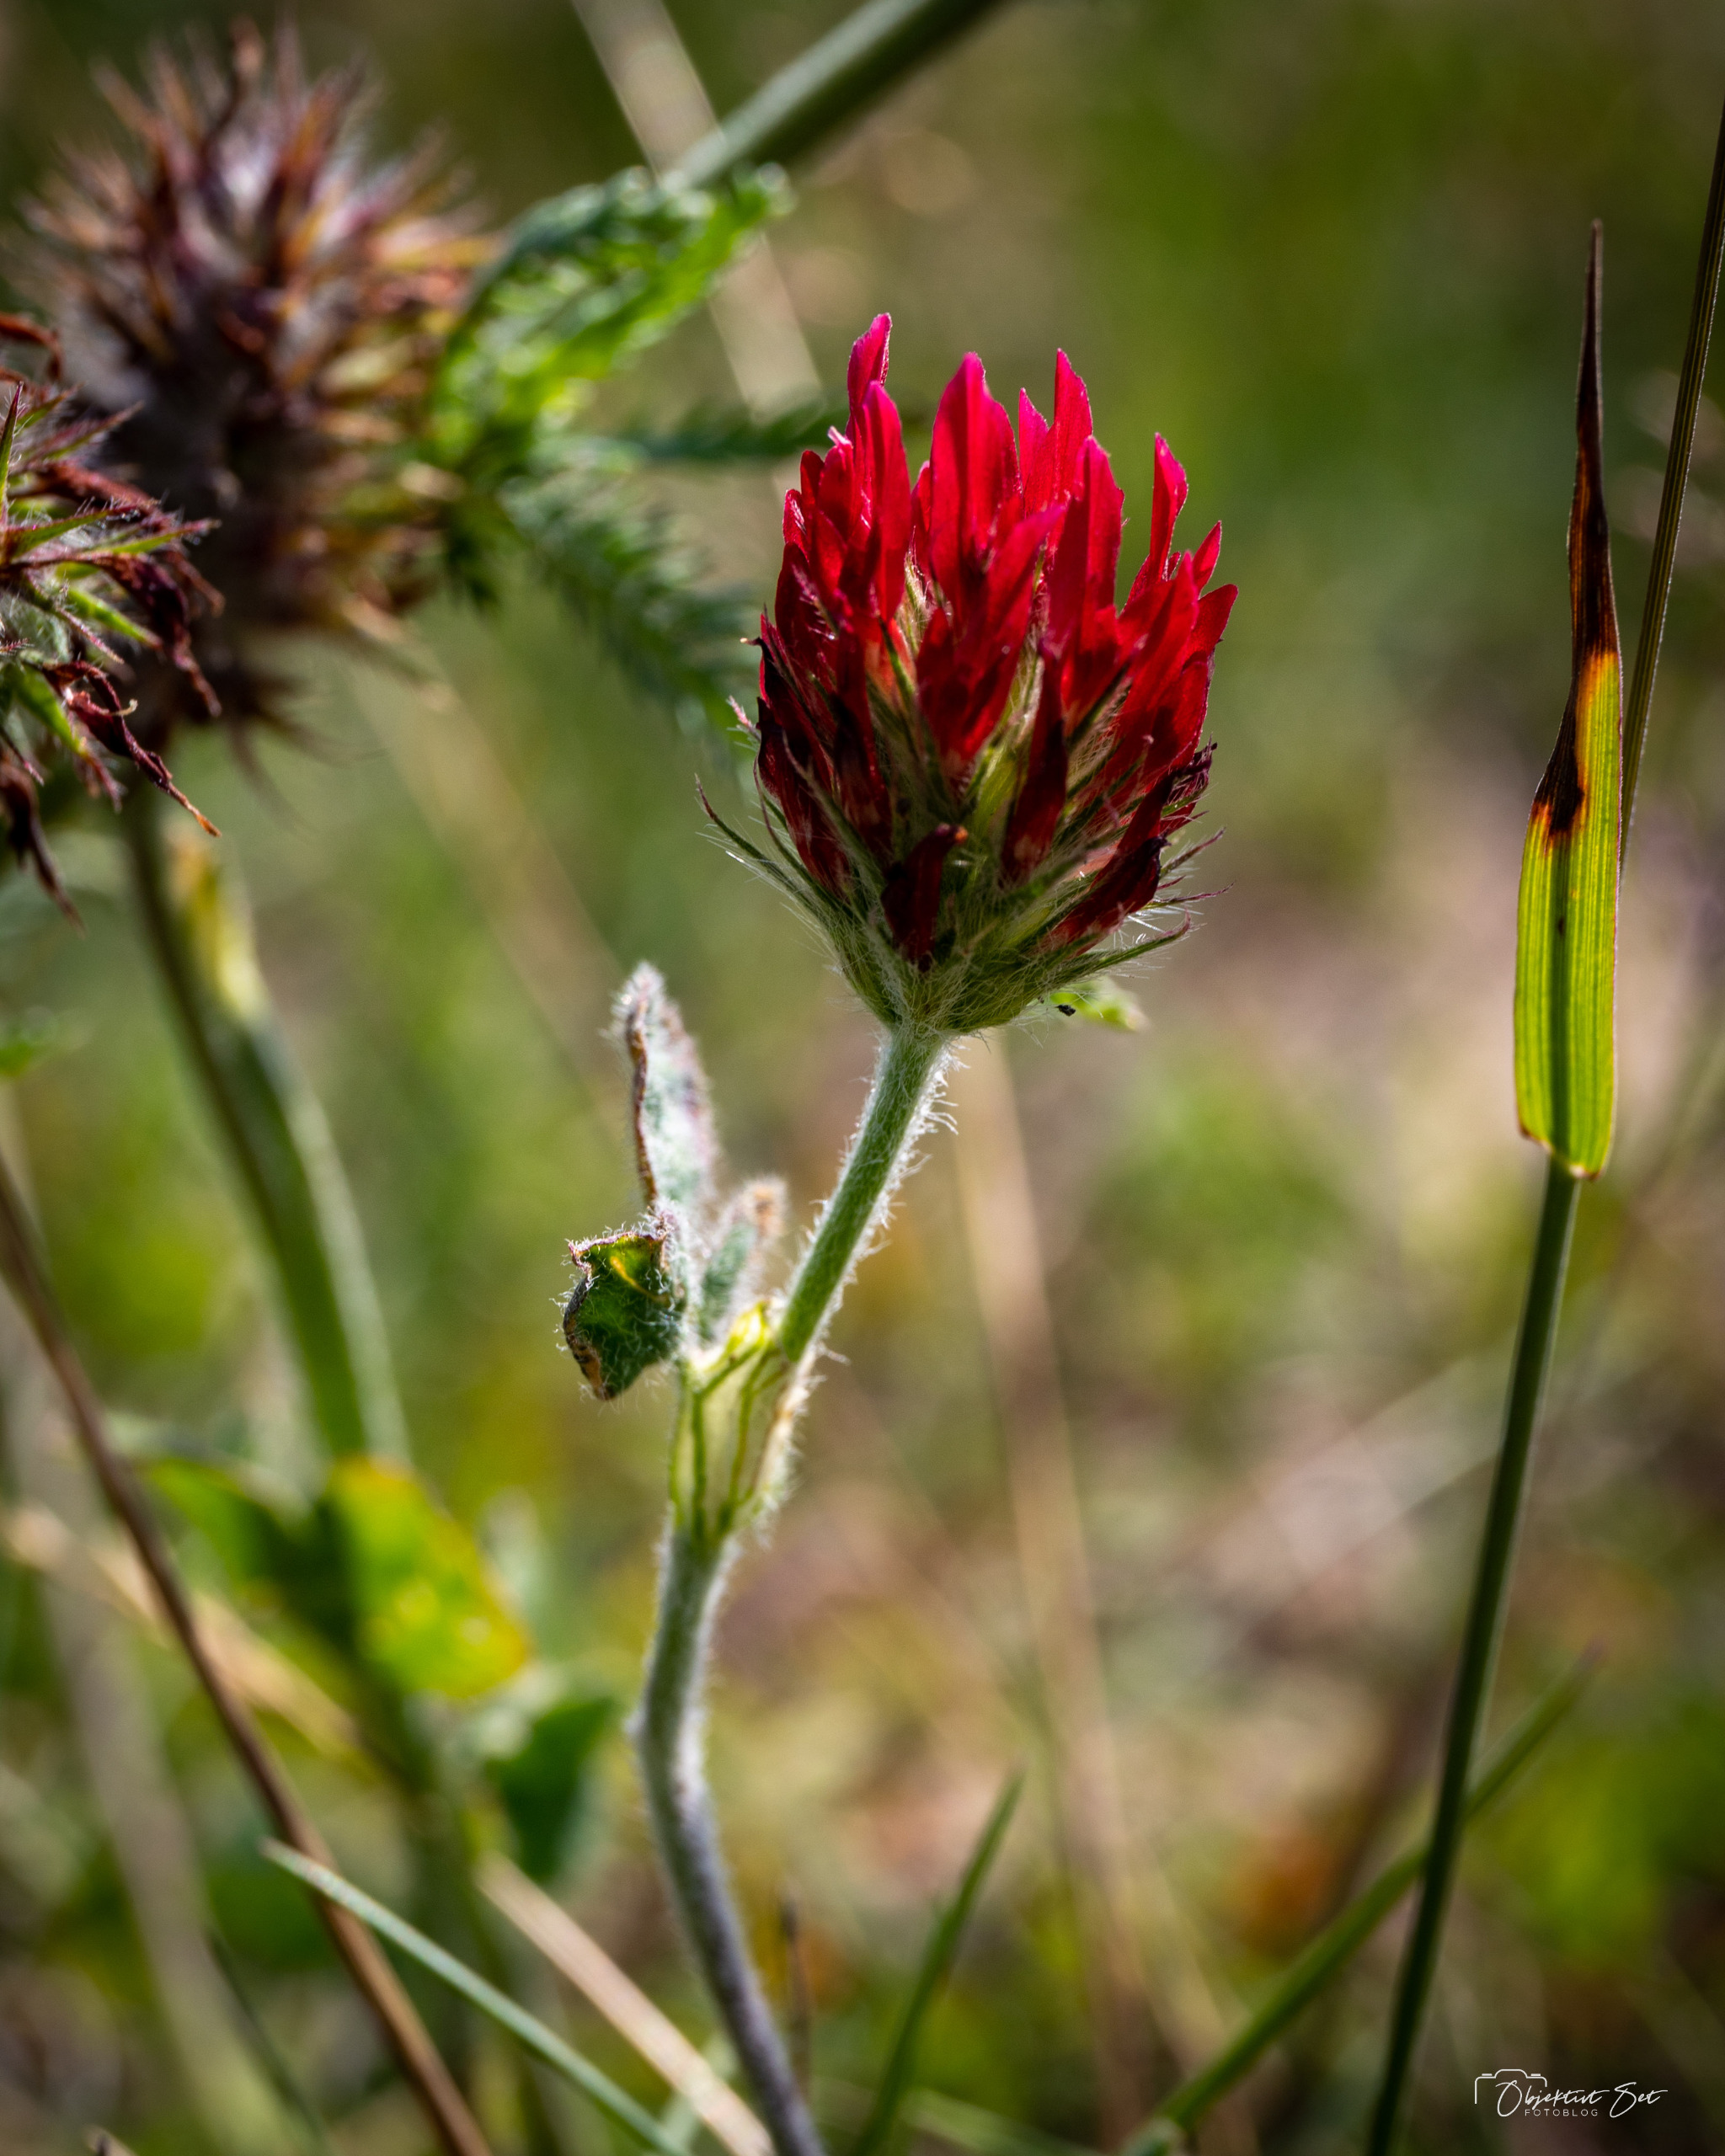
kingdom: Plantae
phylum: Tracheophyta
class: Magnoliopsida
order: Fabales
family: Fabaceae
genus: Trifolium
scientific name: Trifolium incarnatum
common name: Blod-kløver
